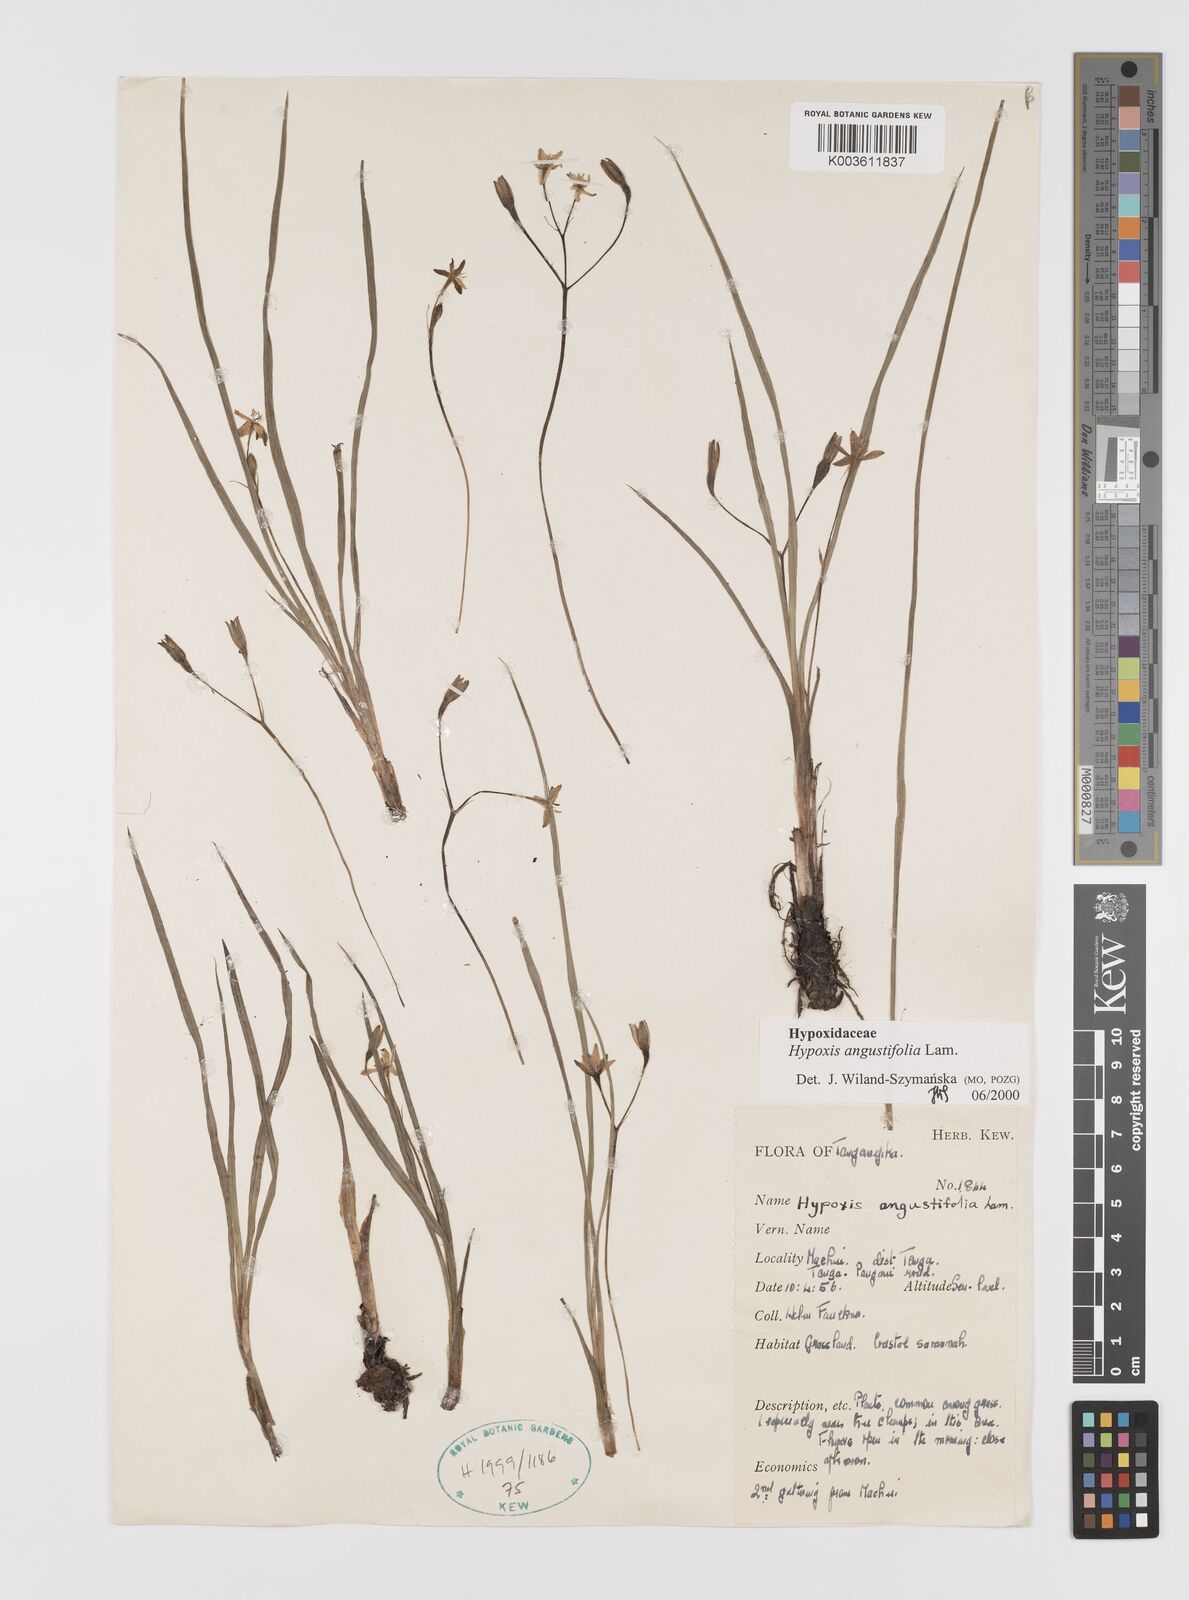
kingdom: Plantae
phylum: Tracheophyta
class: Liliopsida
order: Asparagales
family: Hypoxidaceae
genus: Hypoxis
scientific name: Hypoxis angustifolia
